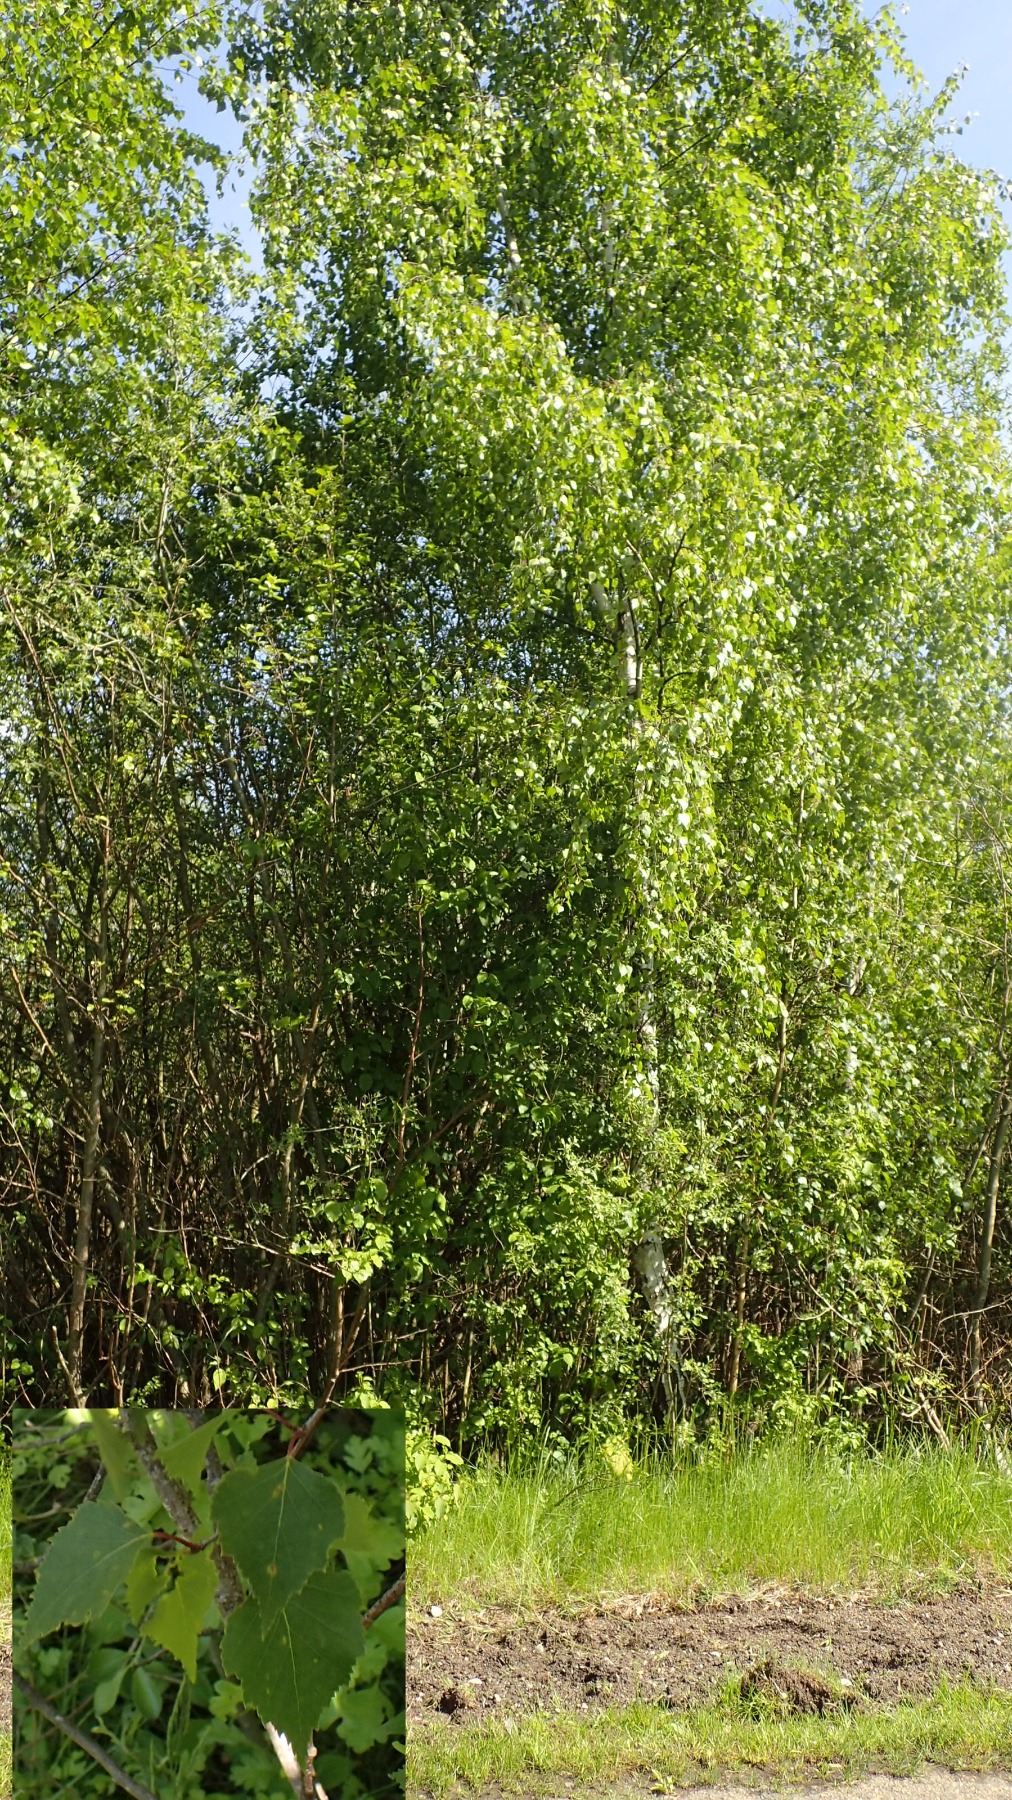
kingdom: Plantae
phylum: Tracheophyta
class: Magnoliopsida
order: Fagales
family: Betulaceae
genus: Betula
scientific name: Betula pendula
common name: Vorte-birk
